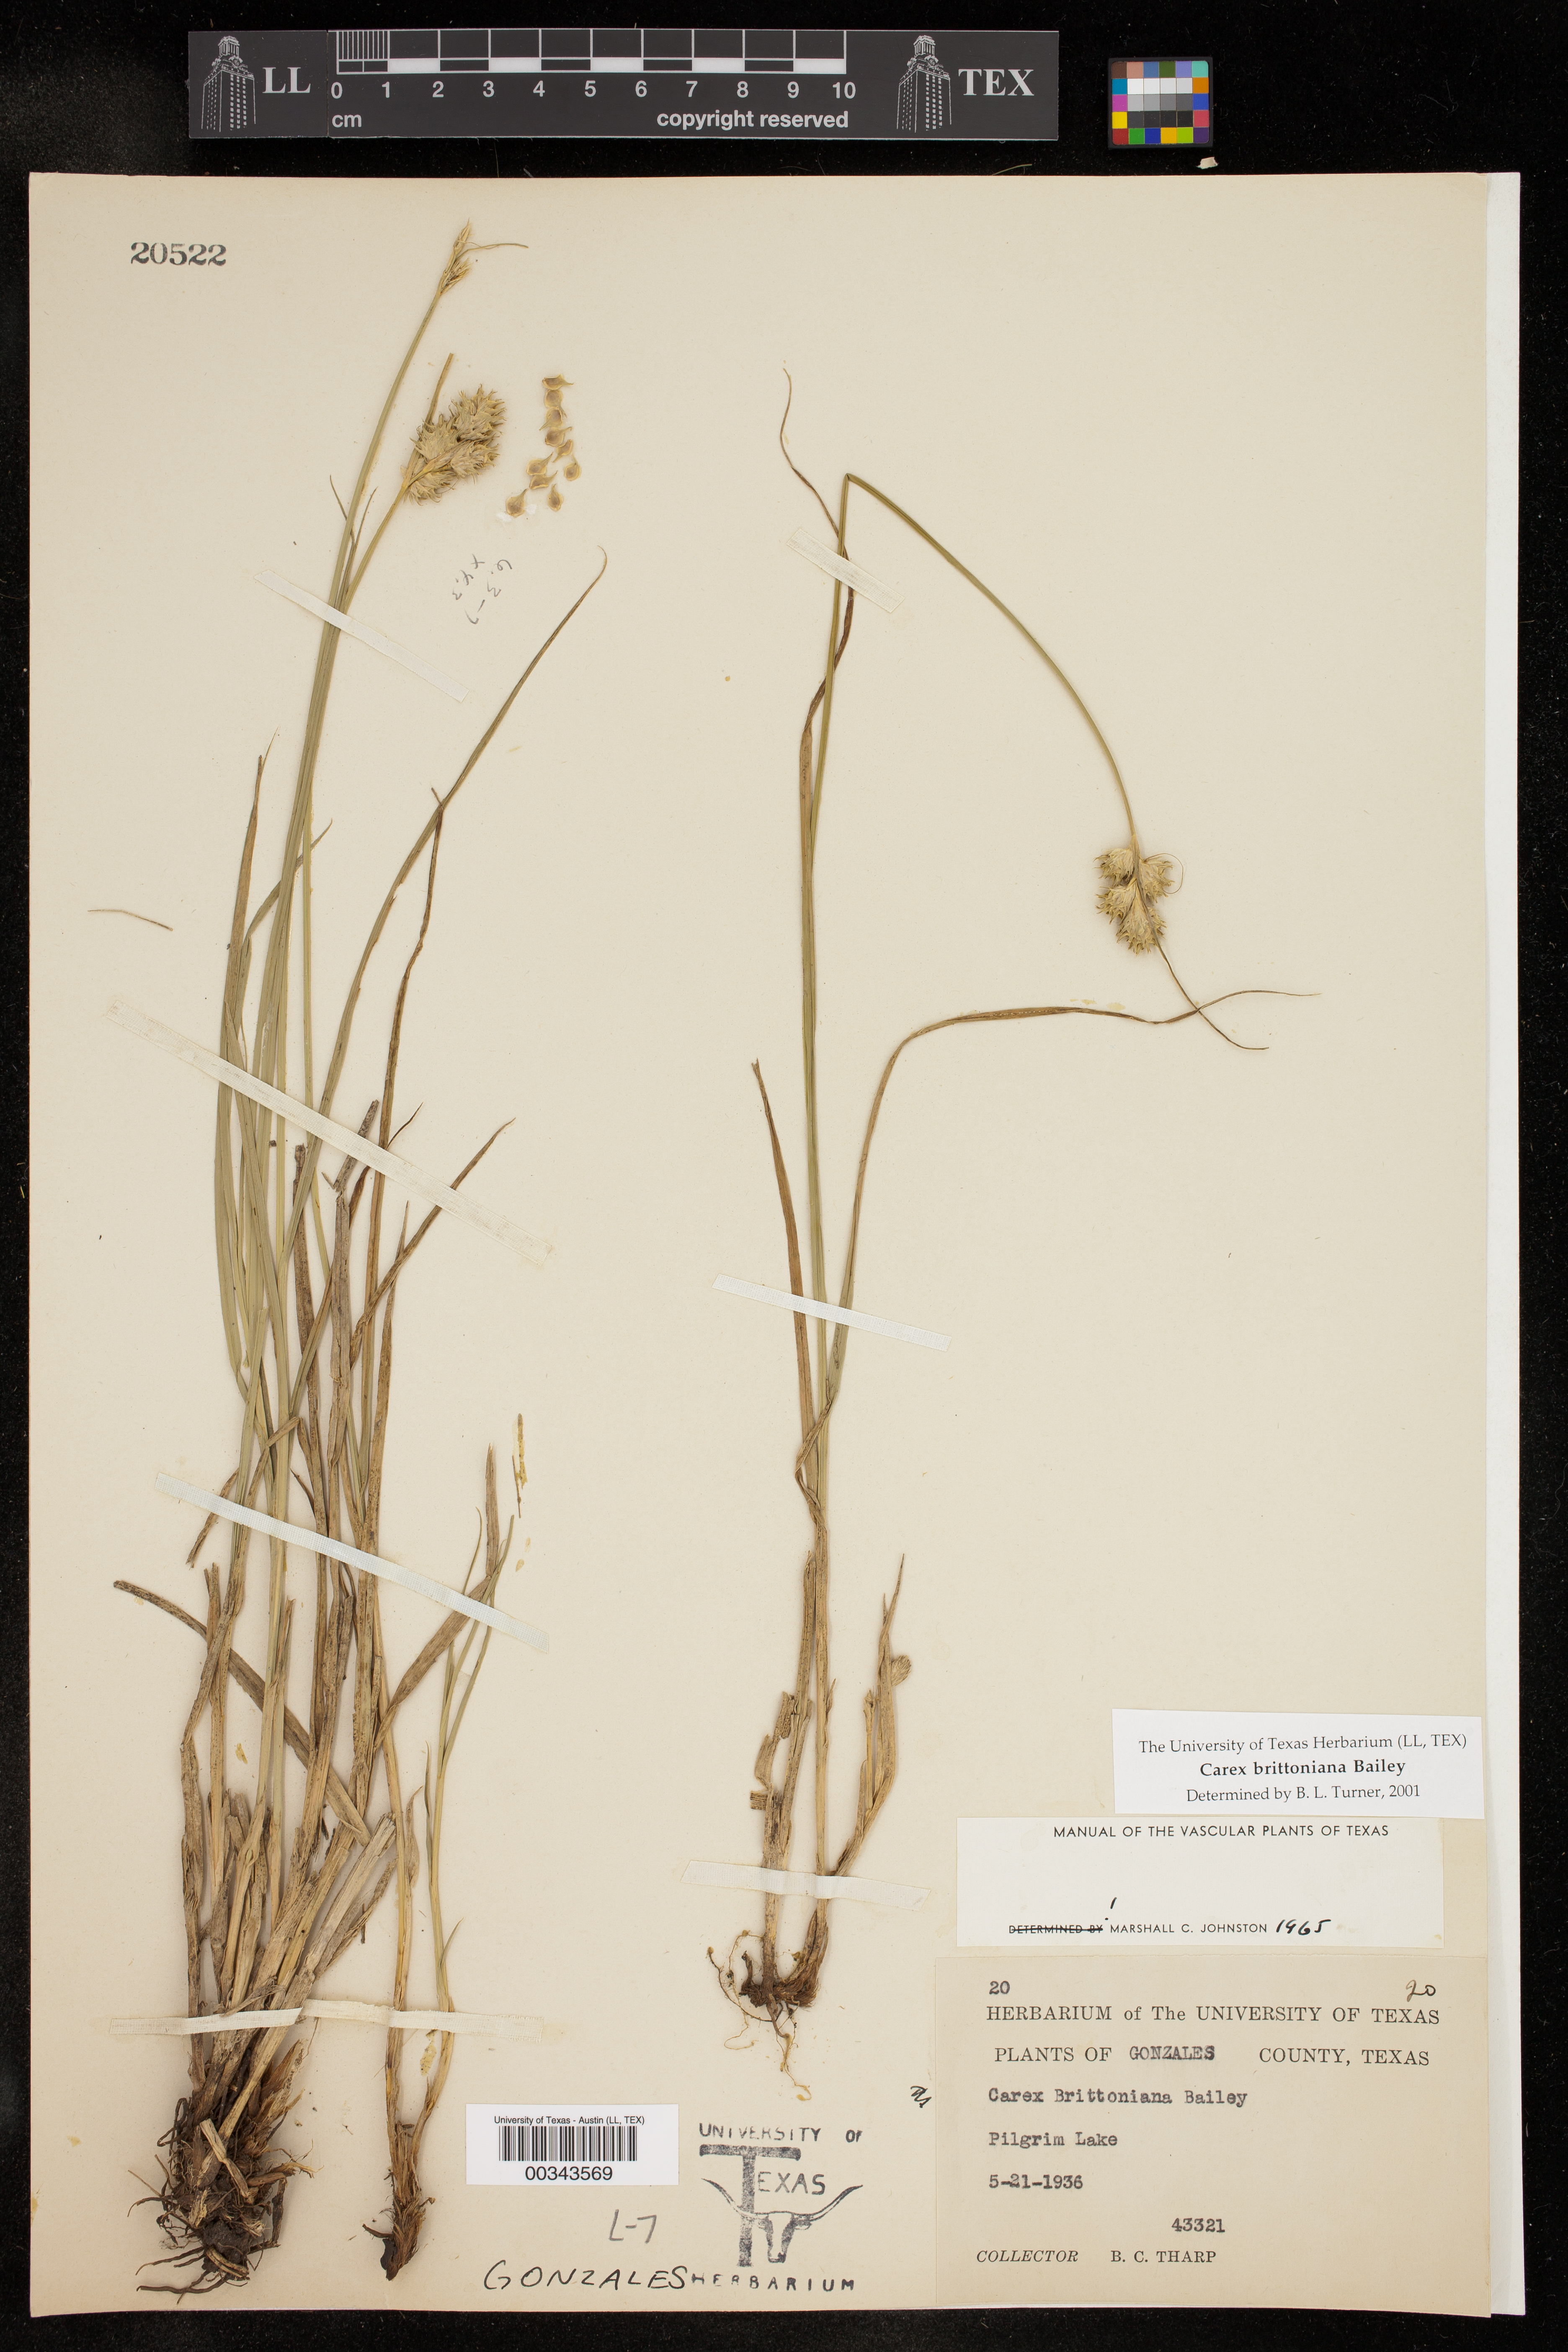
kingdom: Plantae
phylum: Tracheophyta
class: Liliopsida
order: Poales
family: Cyperaceae
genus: Carex
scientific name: Carex tetrastachya
